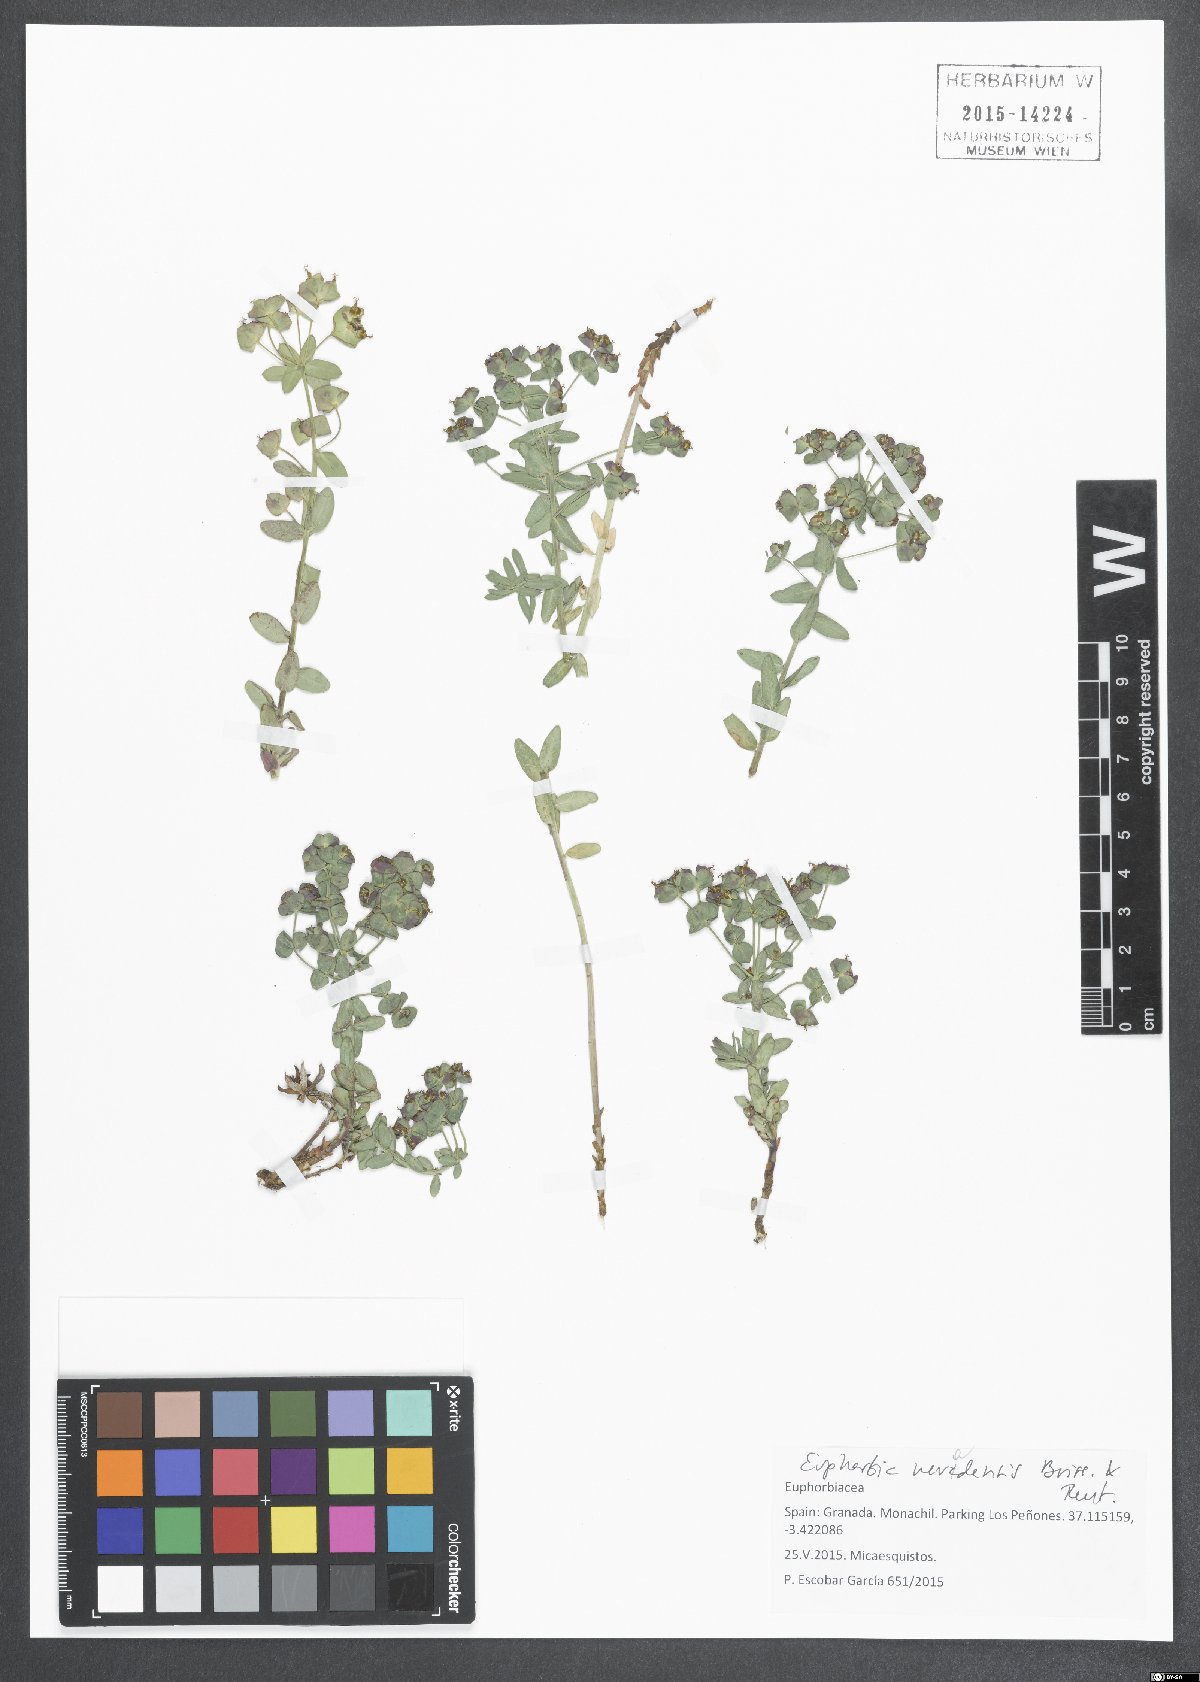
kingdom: Plantae
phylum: Tracheophyta
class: Magnoliopsida
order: Malpighiales
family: Euphorbiaceae
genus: Euphorbia
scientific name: Euphorbia nevadensis
